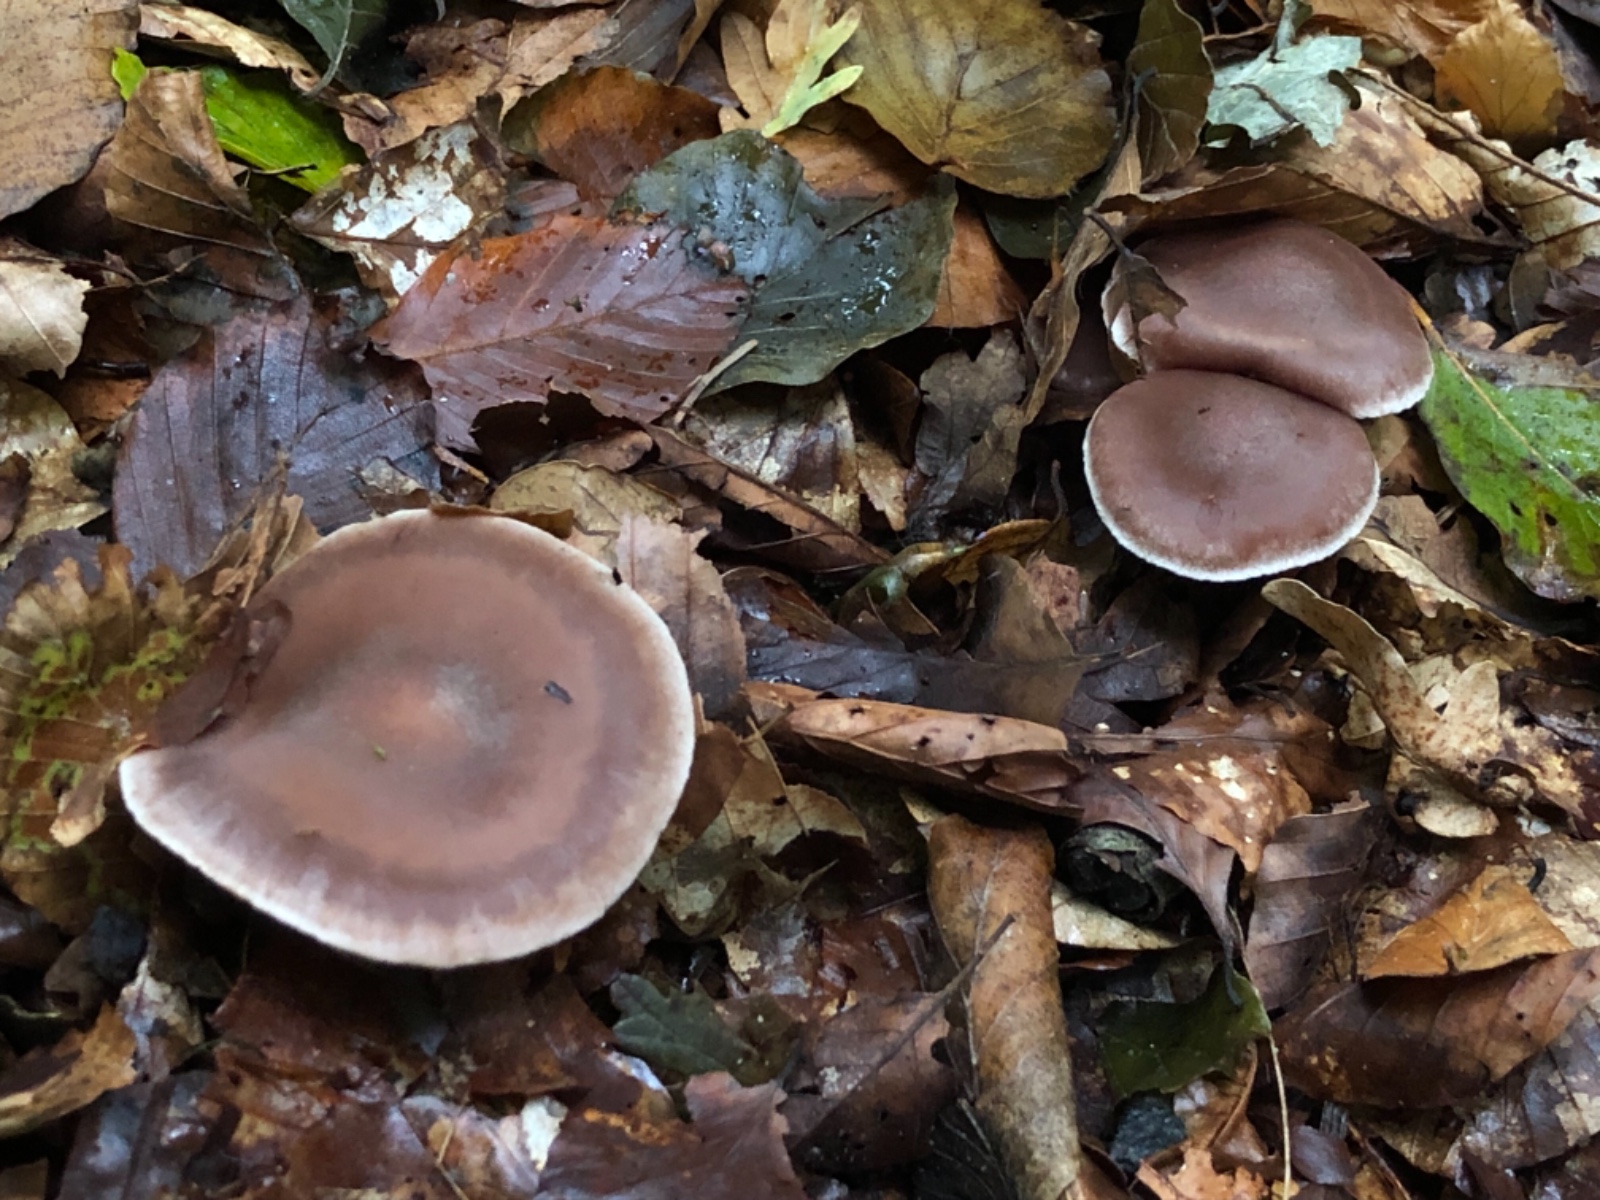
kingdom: Fungi
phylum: Basidiomycota
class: Agaricomycetes
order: Agaricales
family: Cortinariaceae
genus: Cortinarius
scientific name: Cortinarius geniculatus
